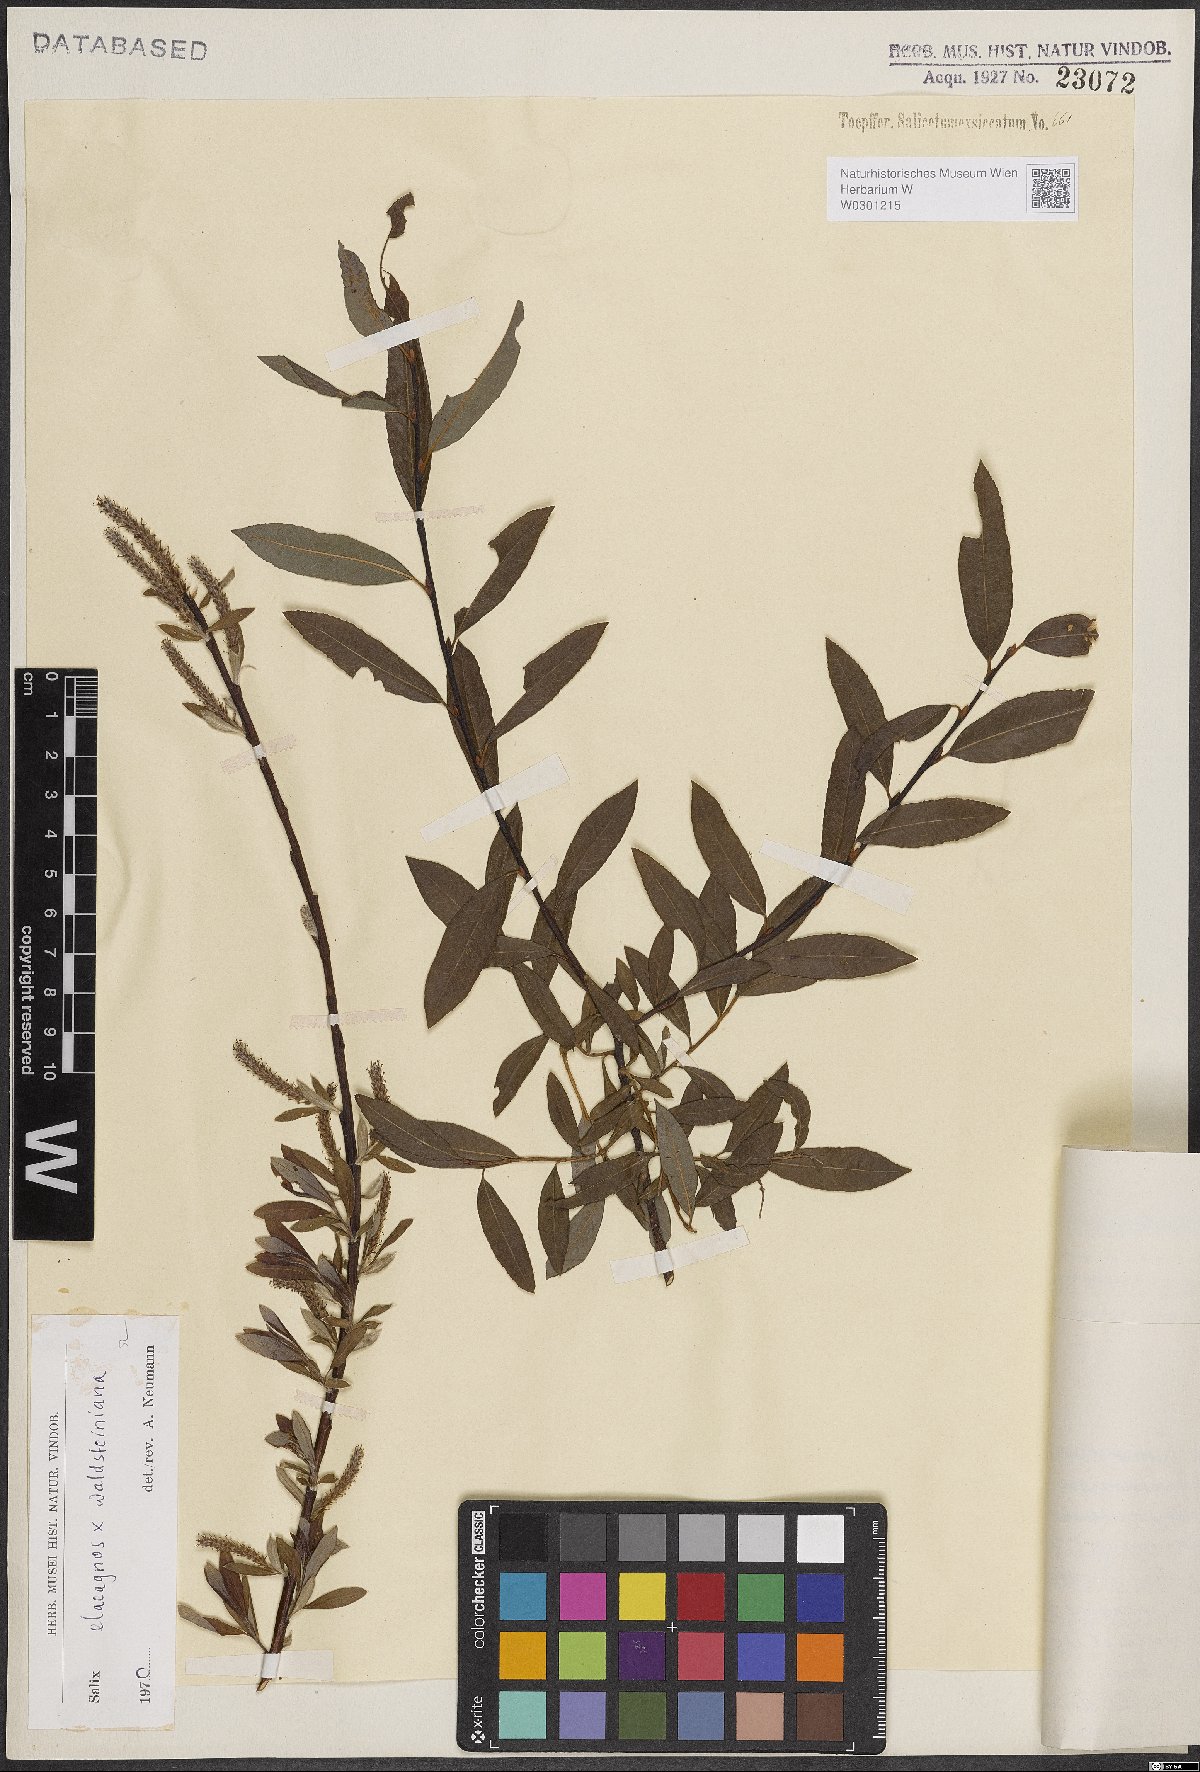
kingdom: Plantae
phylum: Tracheophyta
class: Magnoliopsida
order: Malpighiales
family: Salicaceae
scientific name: Salicaceae
